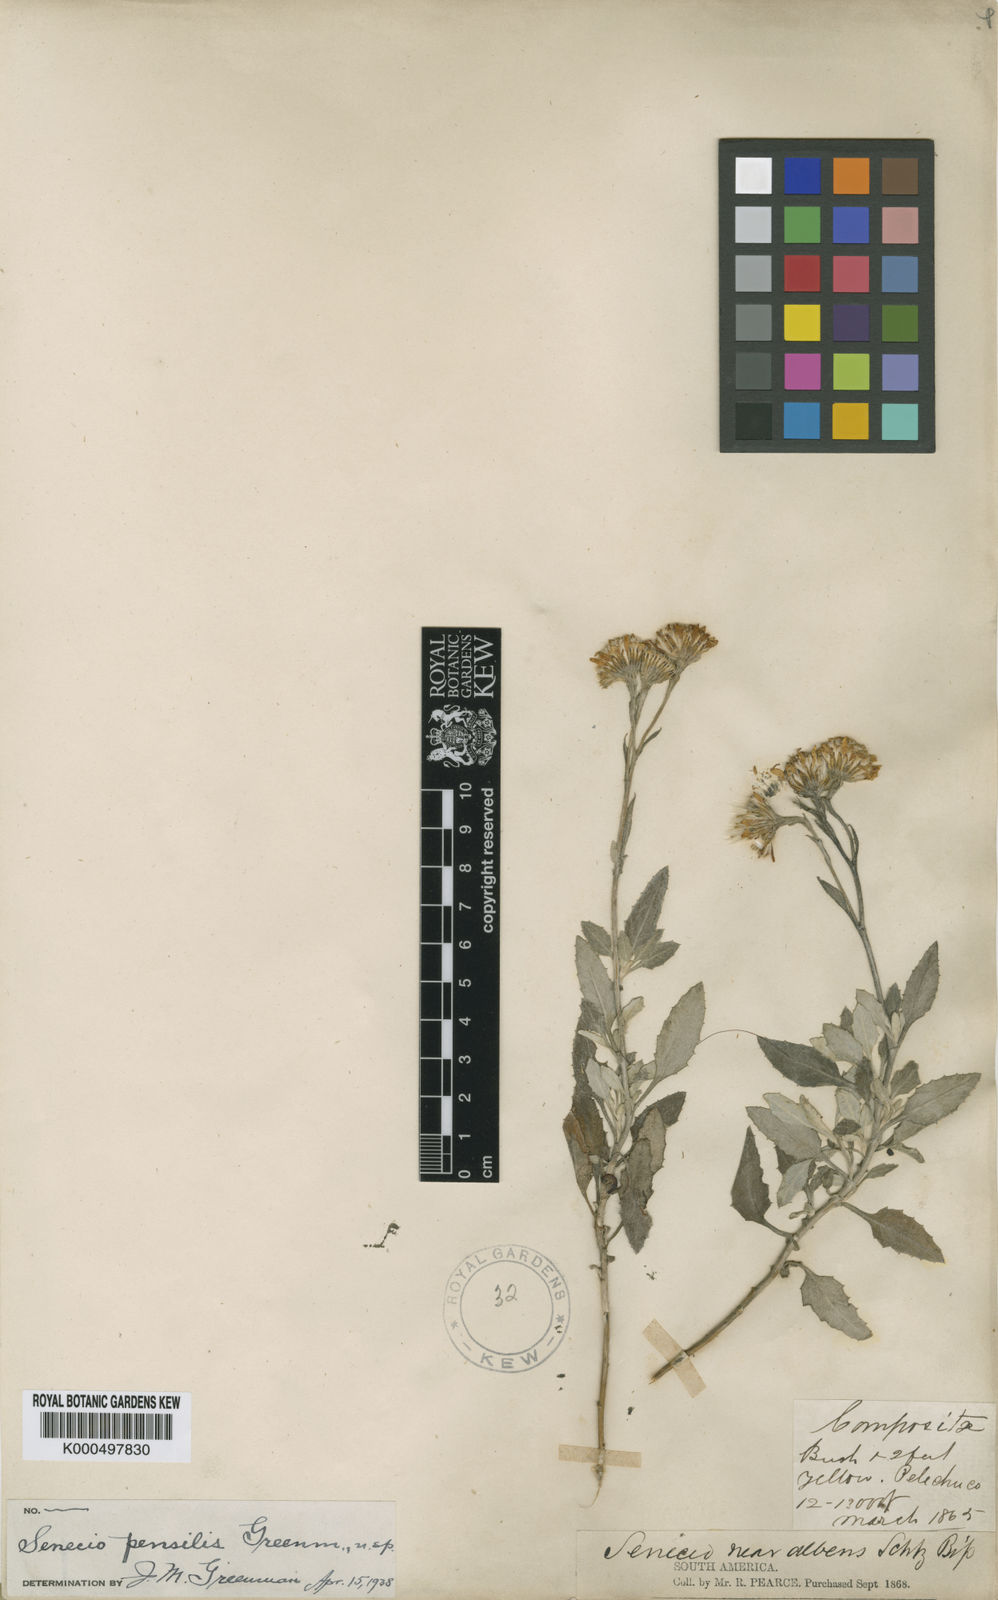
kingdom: Plantae
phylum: Tracheophyta
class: Magnoliopsida
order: Asterales
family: Asteraceae
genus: Senecio
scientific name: Senecio pensilis
